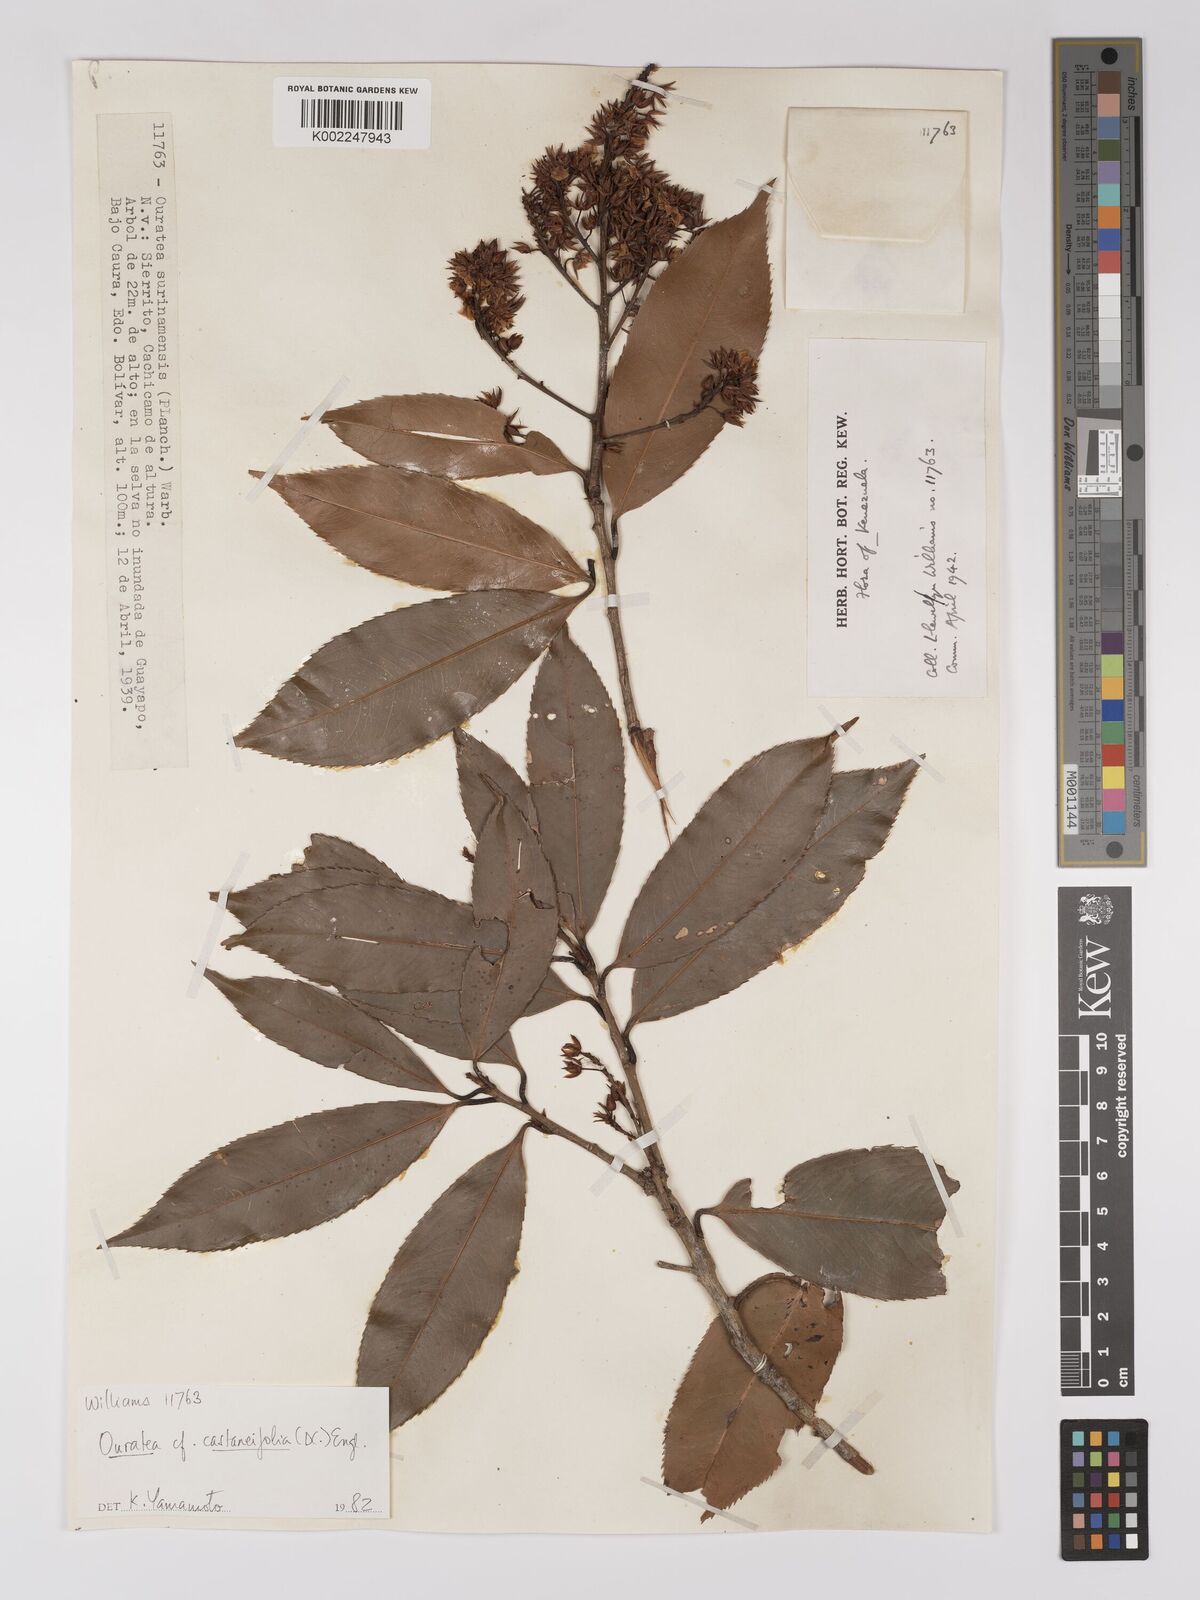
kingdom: Plantae
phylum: Tracheophyta
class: Magnoliopsida
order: Malpighiales
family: Ochnaceae
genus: Ouratea
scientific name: Ouratea castaneifolia
